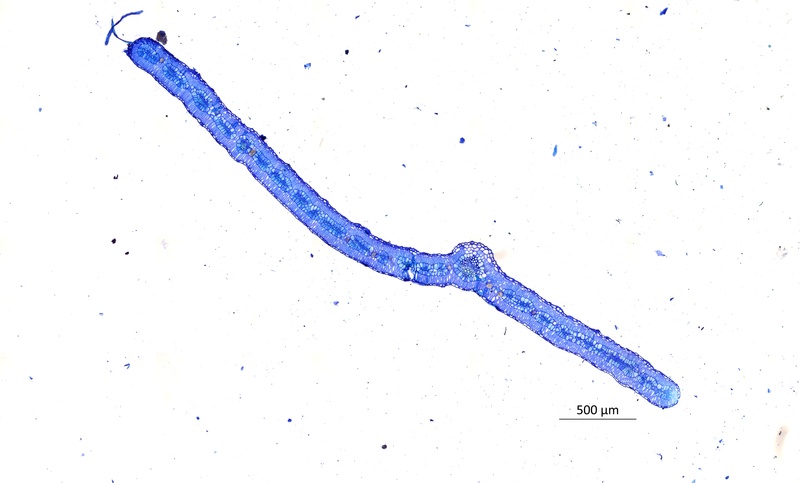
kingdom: Plantae
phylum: Tracheophyta
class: Magnoliopsida
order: Zygophyllales
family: Zygophyllaceae
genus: Tribulus
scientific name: Tribulus terrestris
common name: Puncturevine
